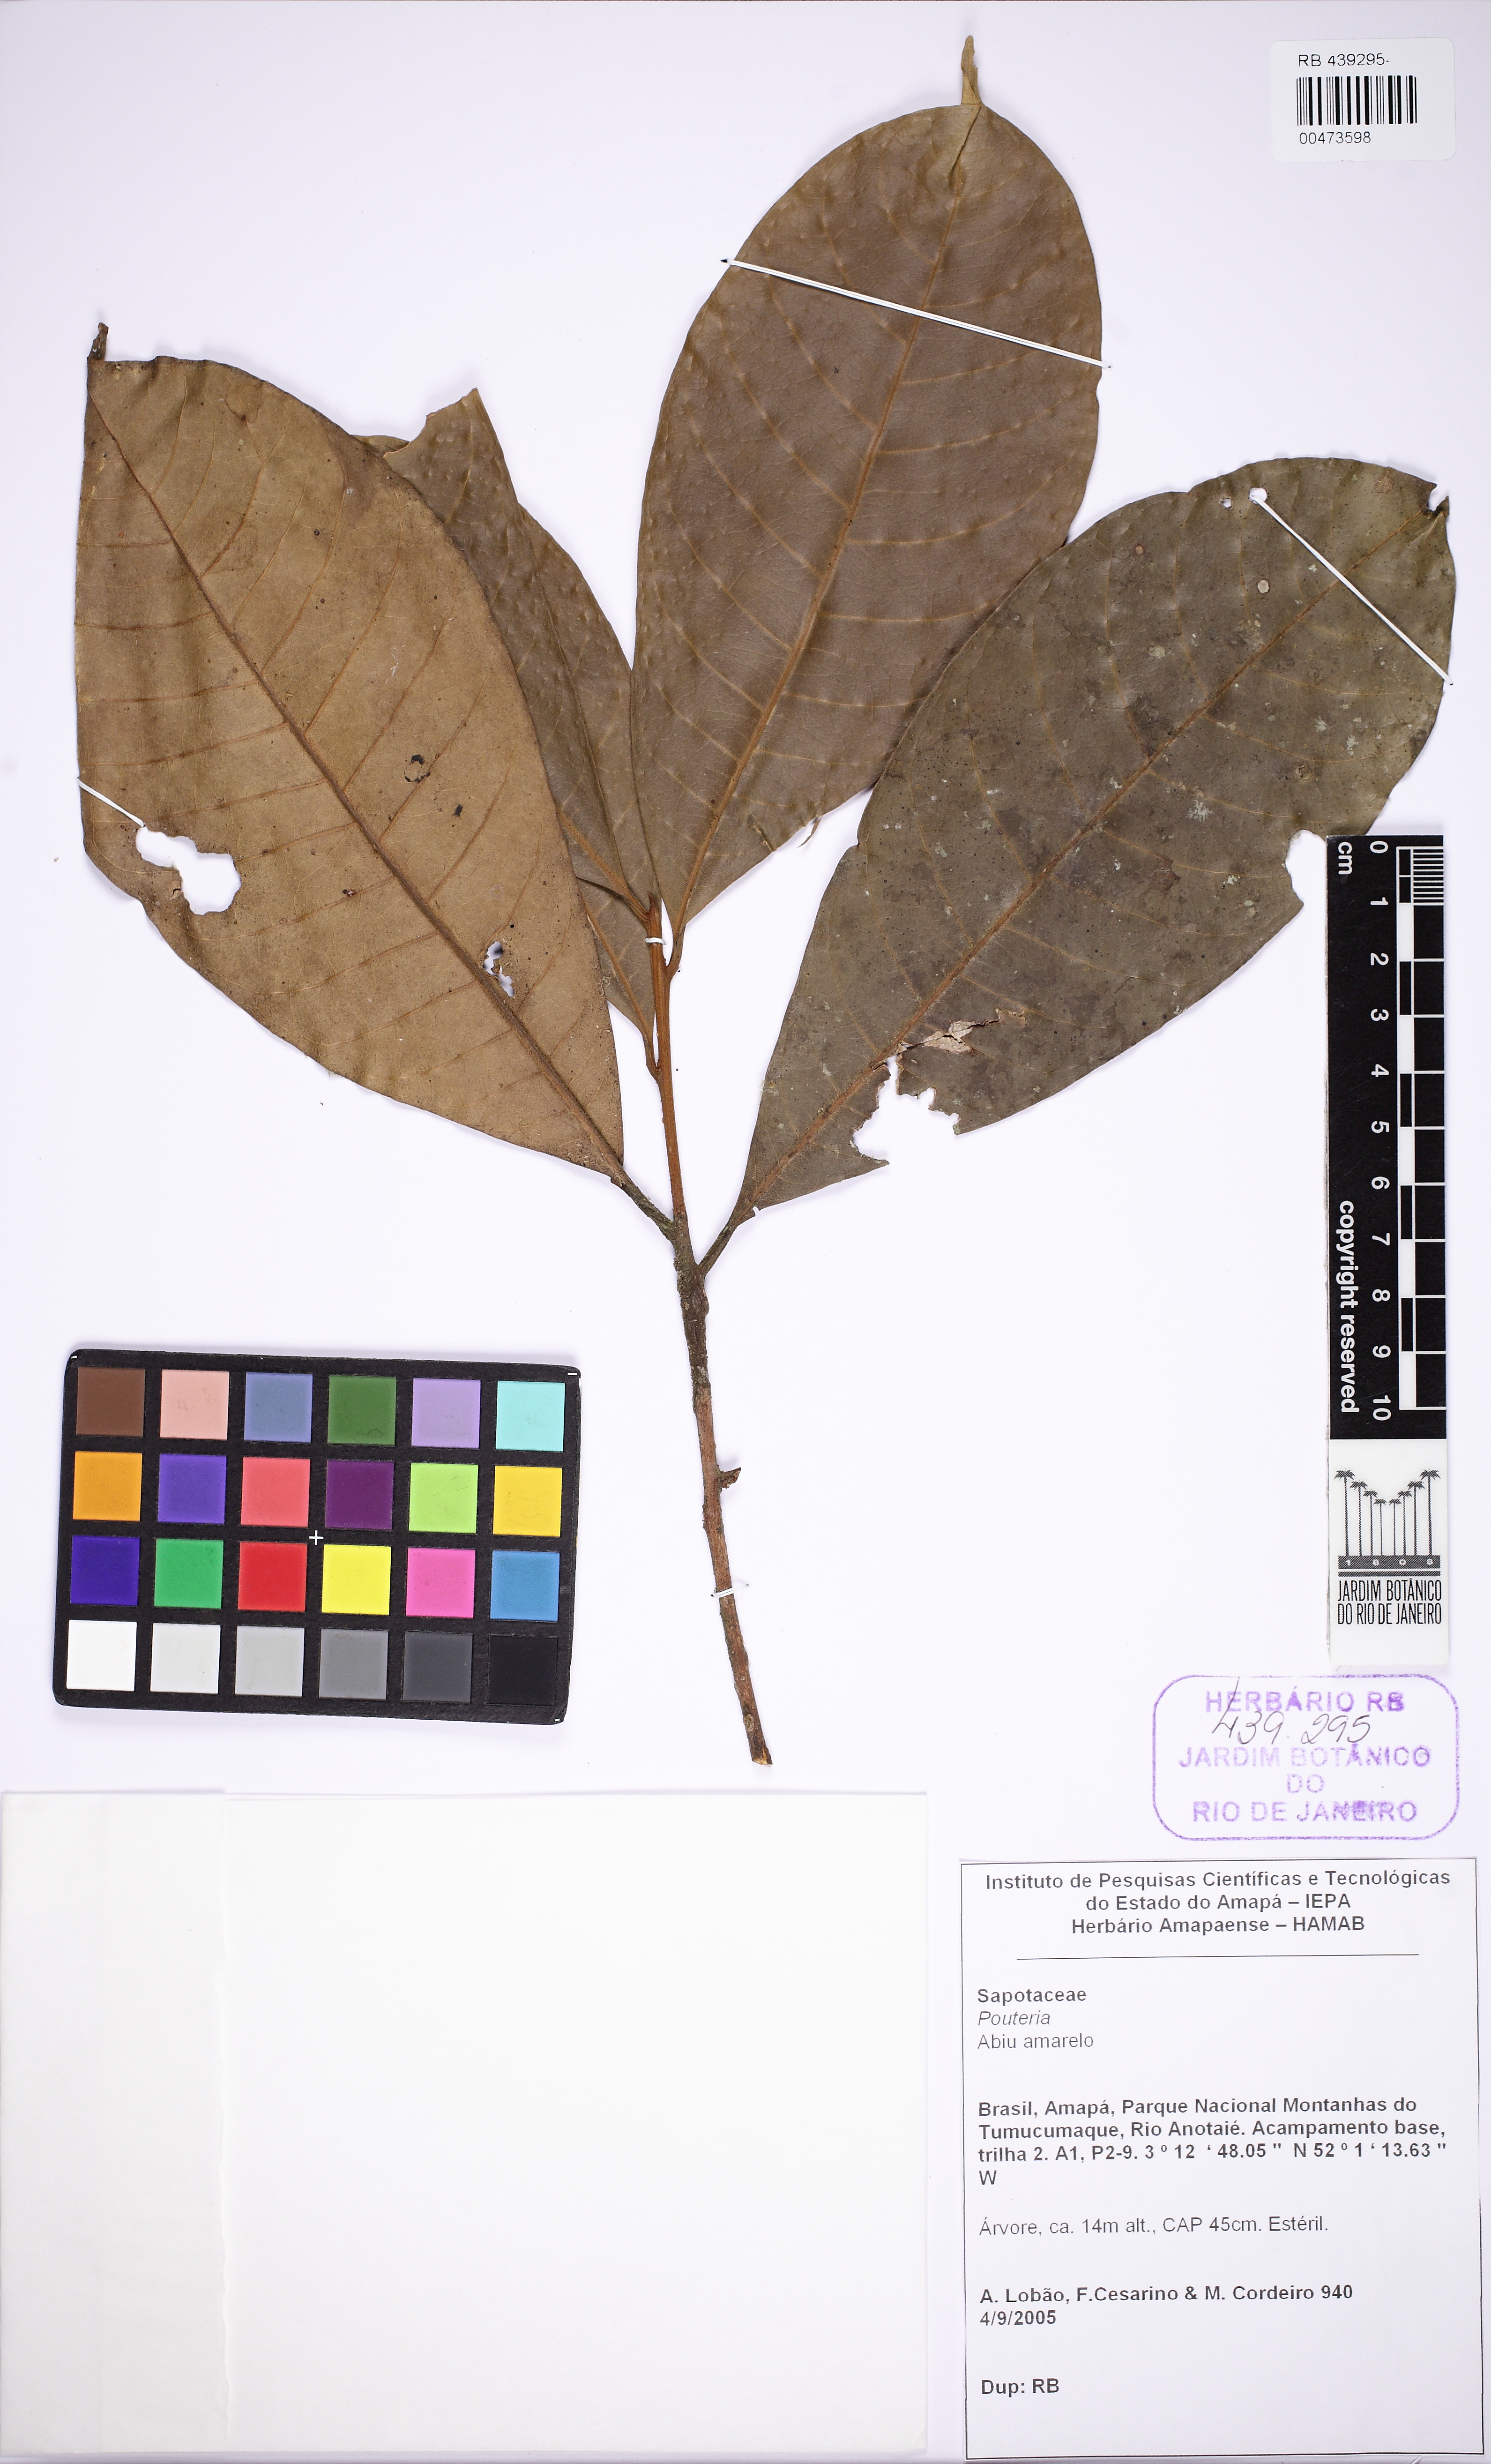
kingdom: Plantae
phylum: Tracheophyta
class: Magnoliopsida
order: Ericales
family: Sapotaceae
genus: Pouteria
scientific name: Pouteria
